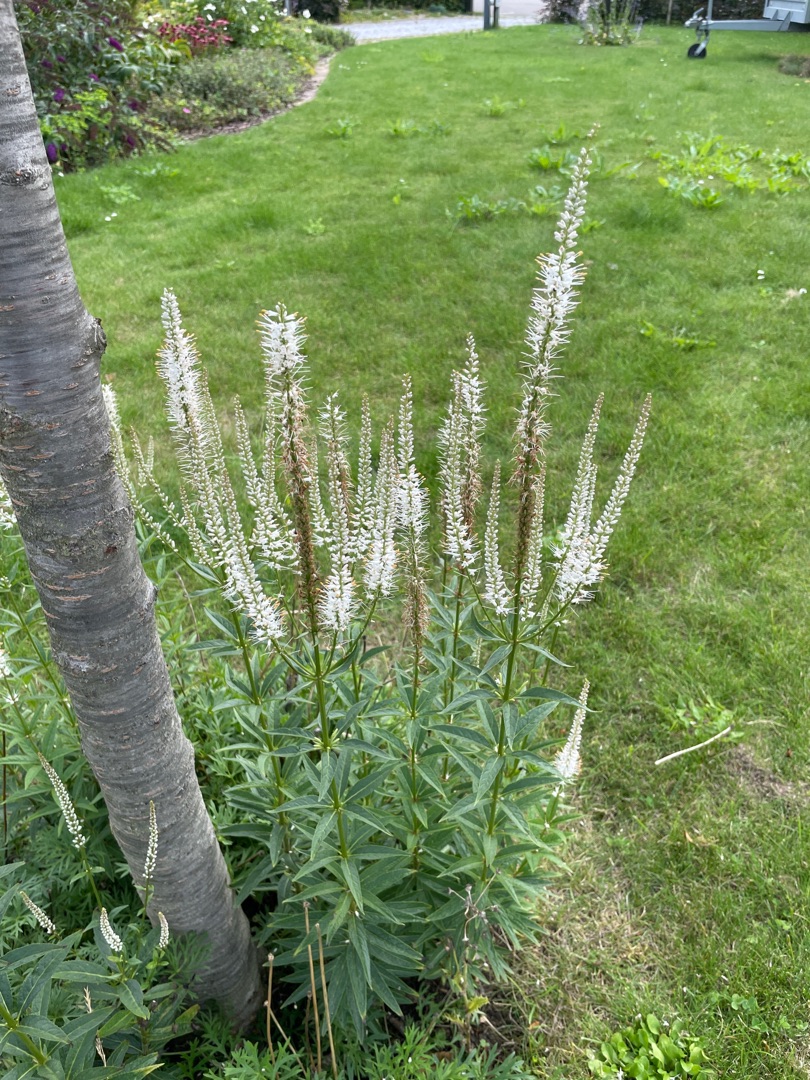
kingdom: Plantae
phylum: Tracheophyta
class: Magnoliopsida
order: Lamiales
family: Plantaginaceae
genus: Veronicastrum
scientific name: Veronicastrum virginicum
